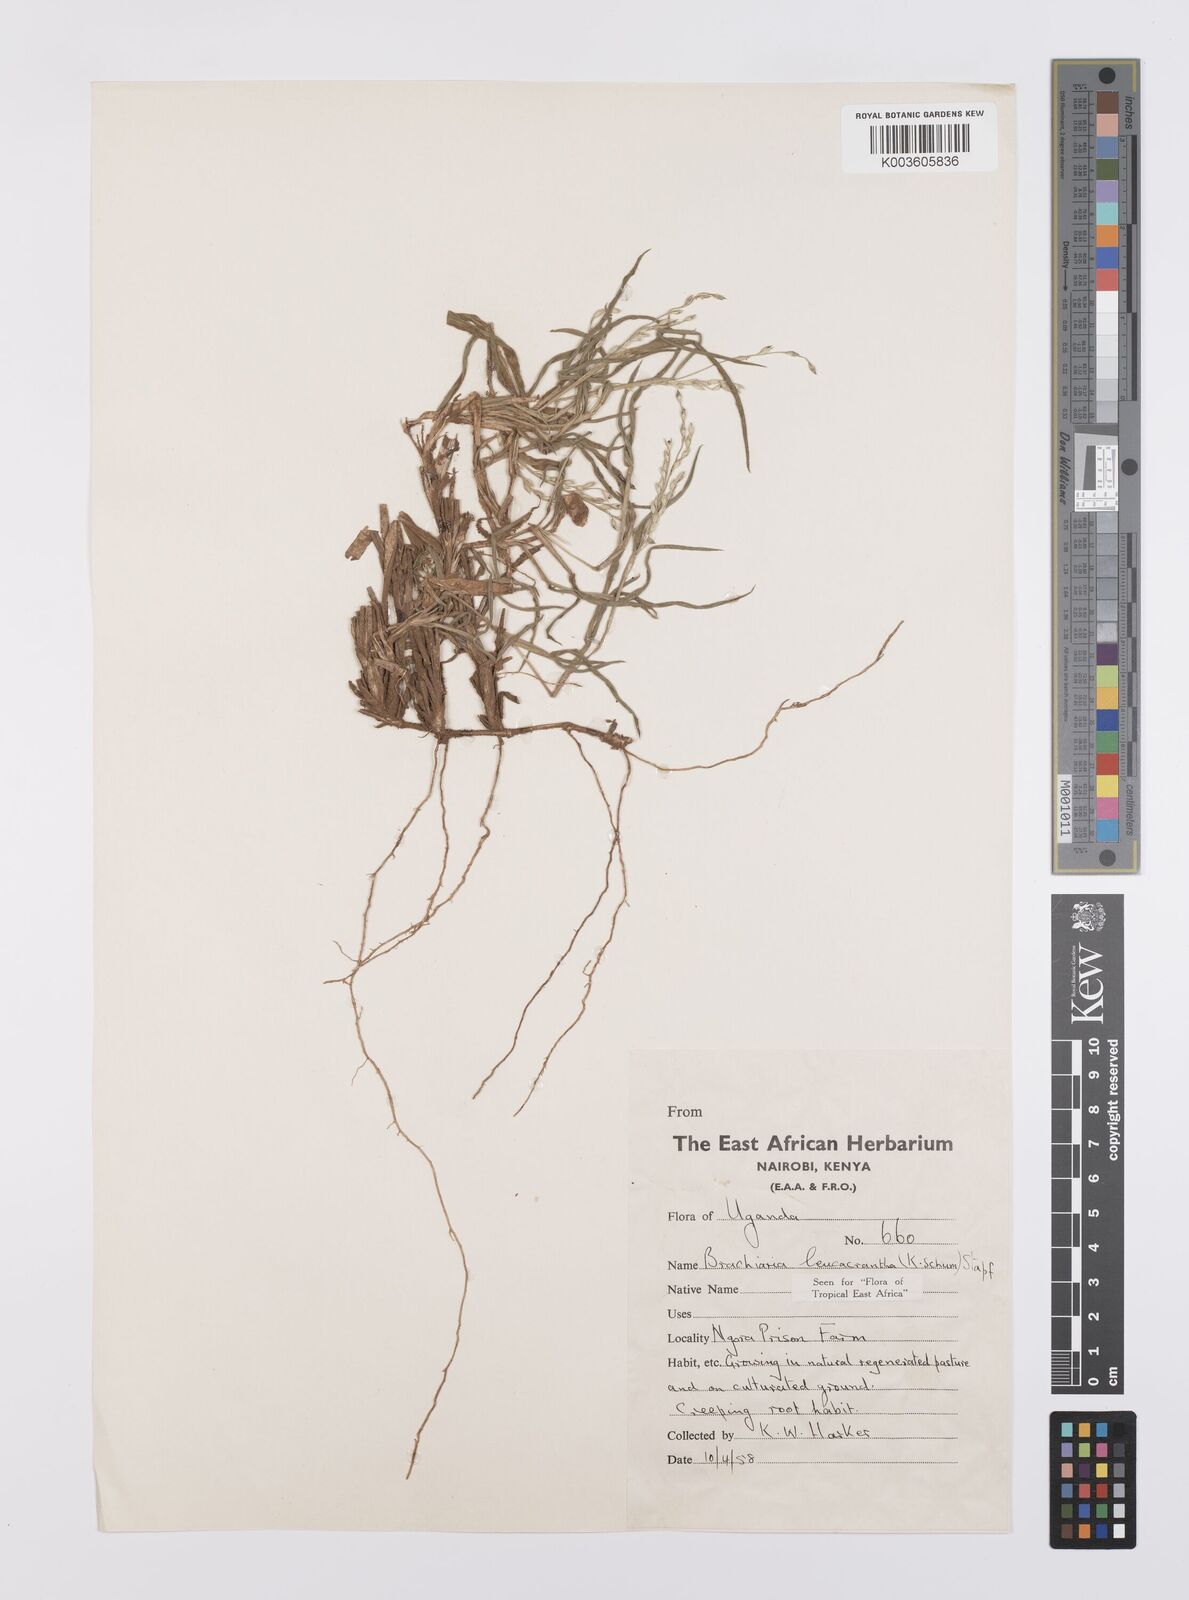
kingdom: Plantae
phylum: Tracheophyta
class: Liliopsida
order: Poales
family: Poaceae
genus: Urochloa
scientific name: Urochloa xantholeuca
